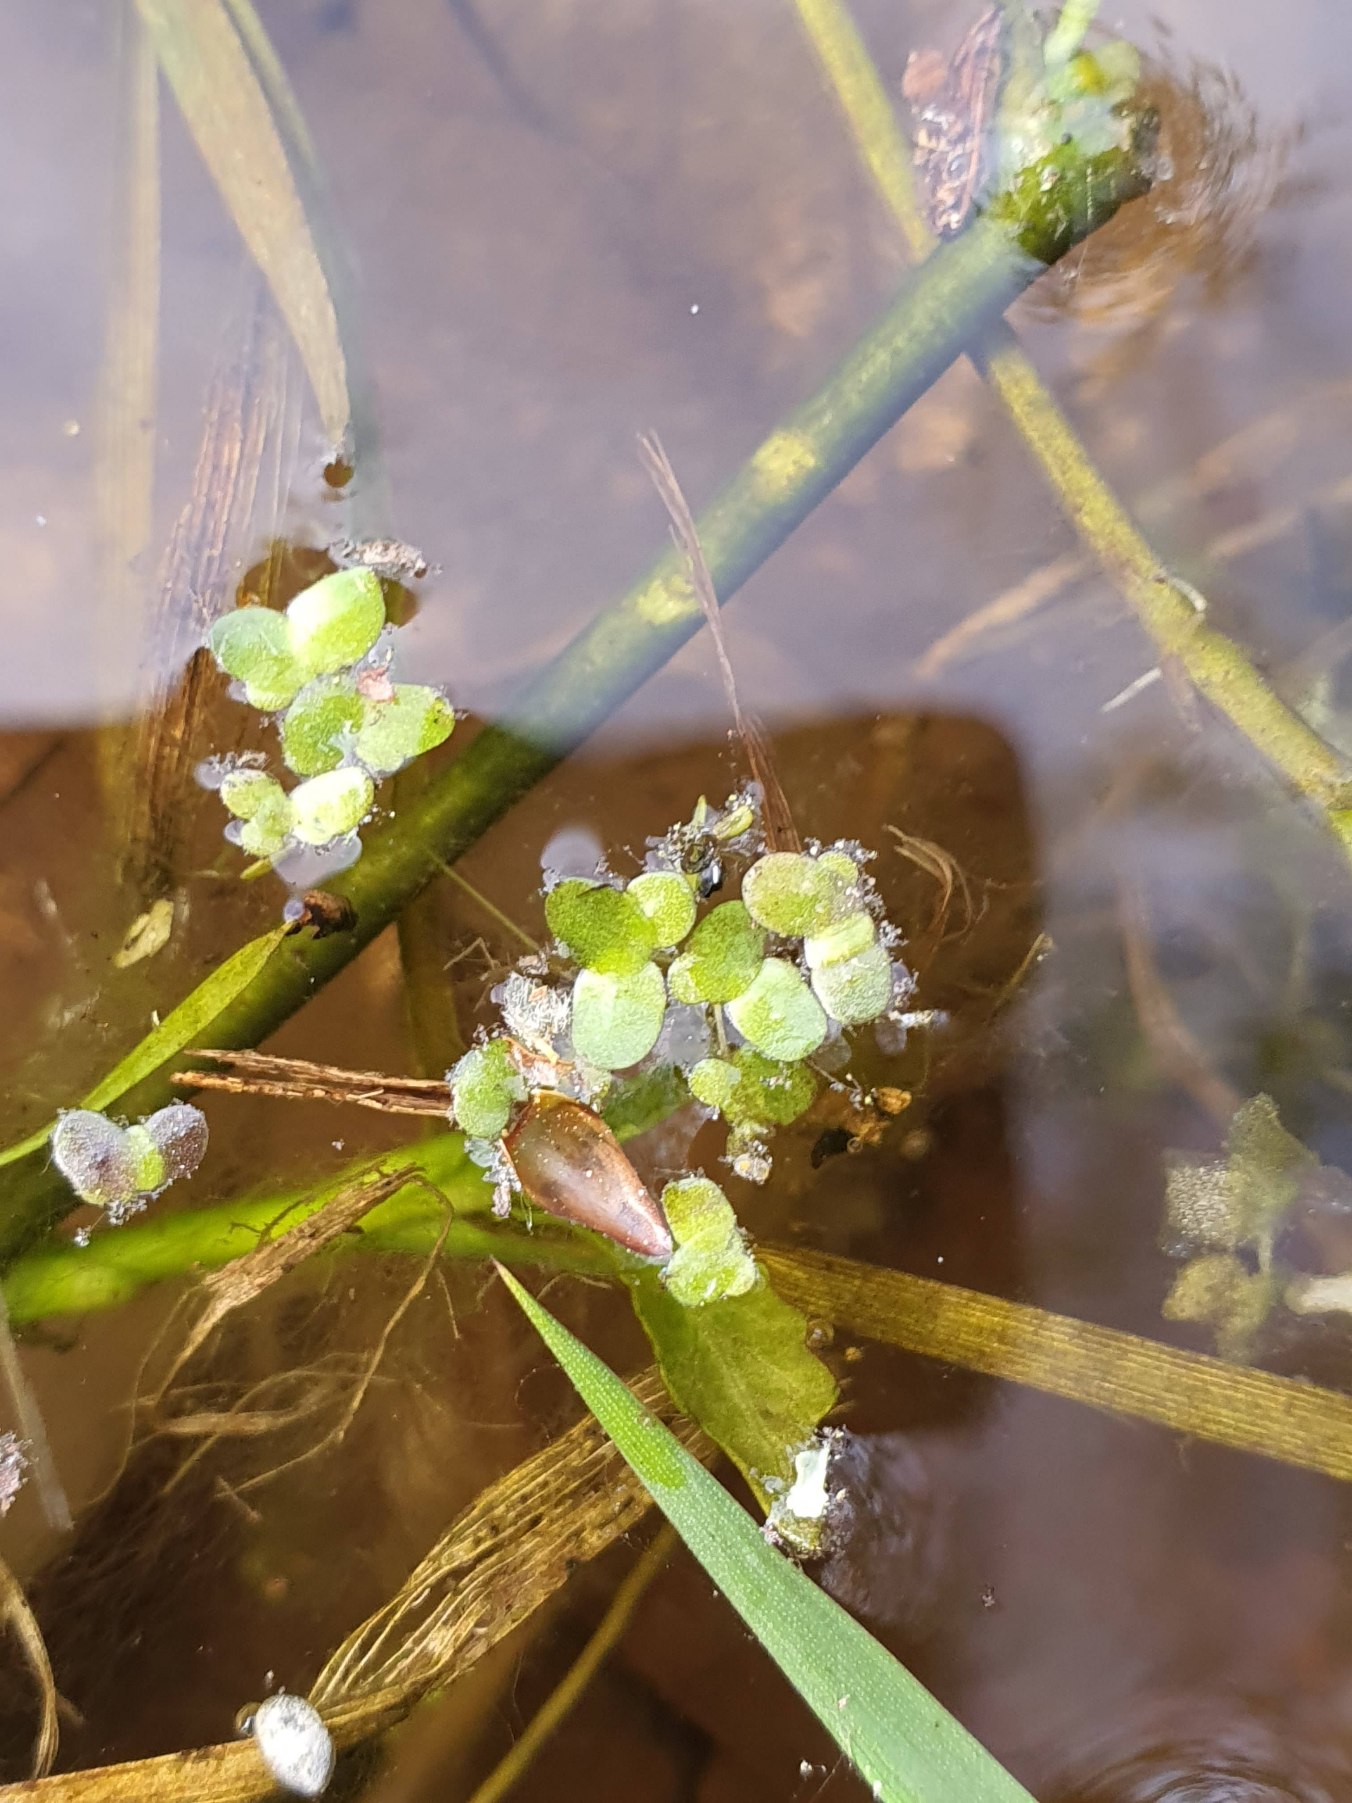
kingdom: Plantae
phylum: Tracheophyta
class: Liliopsida
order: Alismatales
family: Araceae
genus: Lemna
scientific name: Lemna minor
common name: Liden andemad
